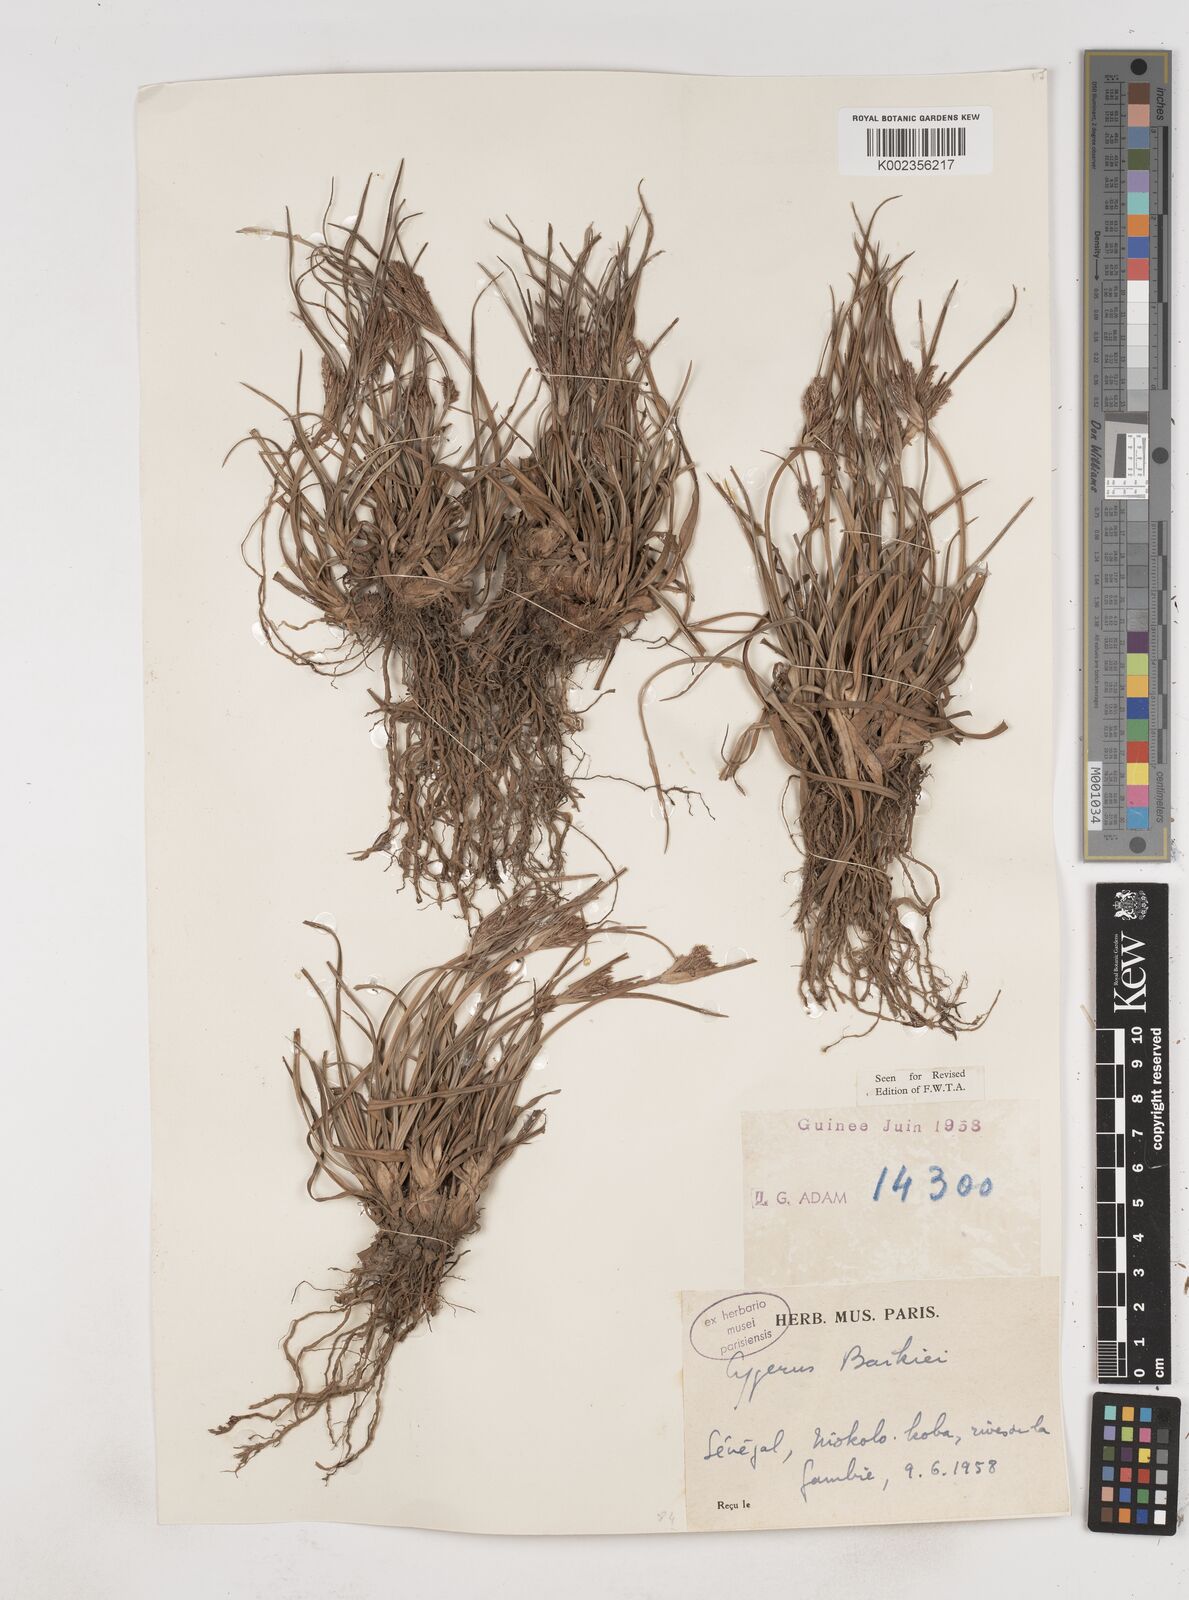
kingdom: Plantae
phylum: Tracheophyta
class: Liliopsida
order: Poales
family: Cyperaceae
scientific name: Cyperaceae
